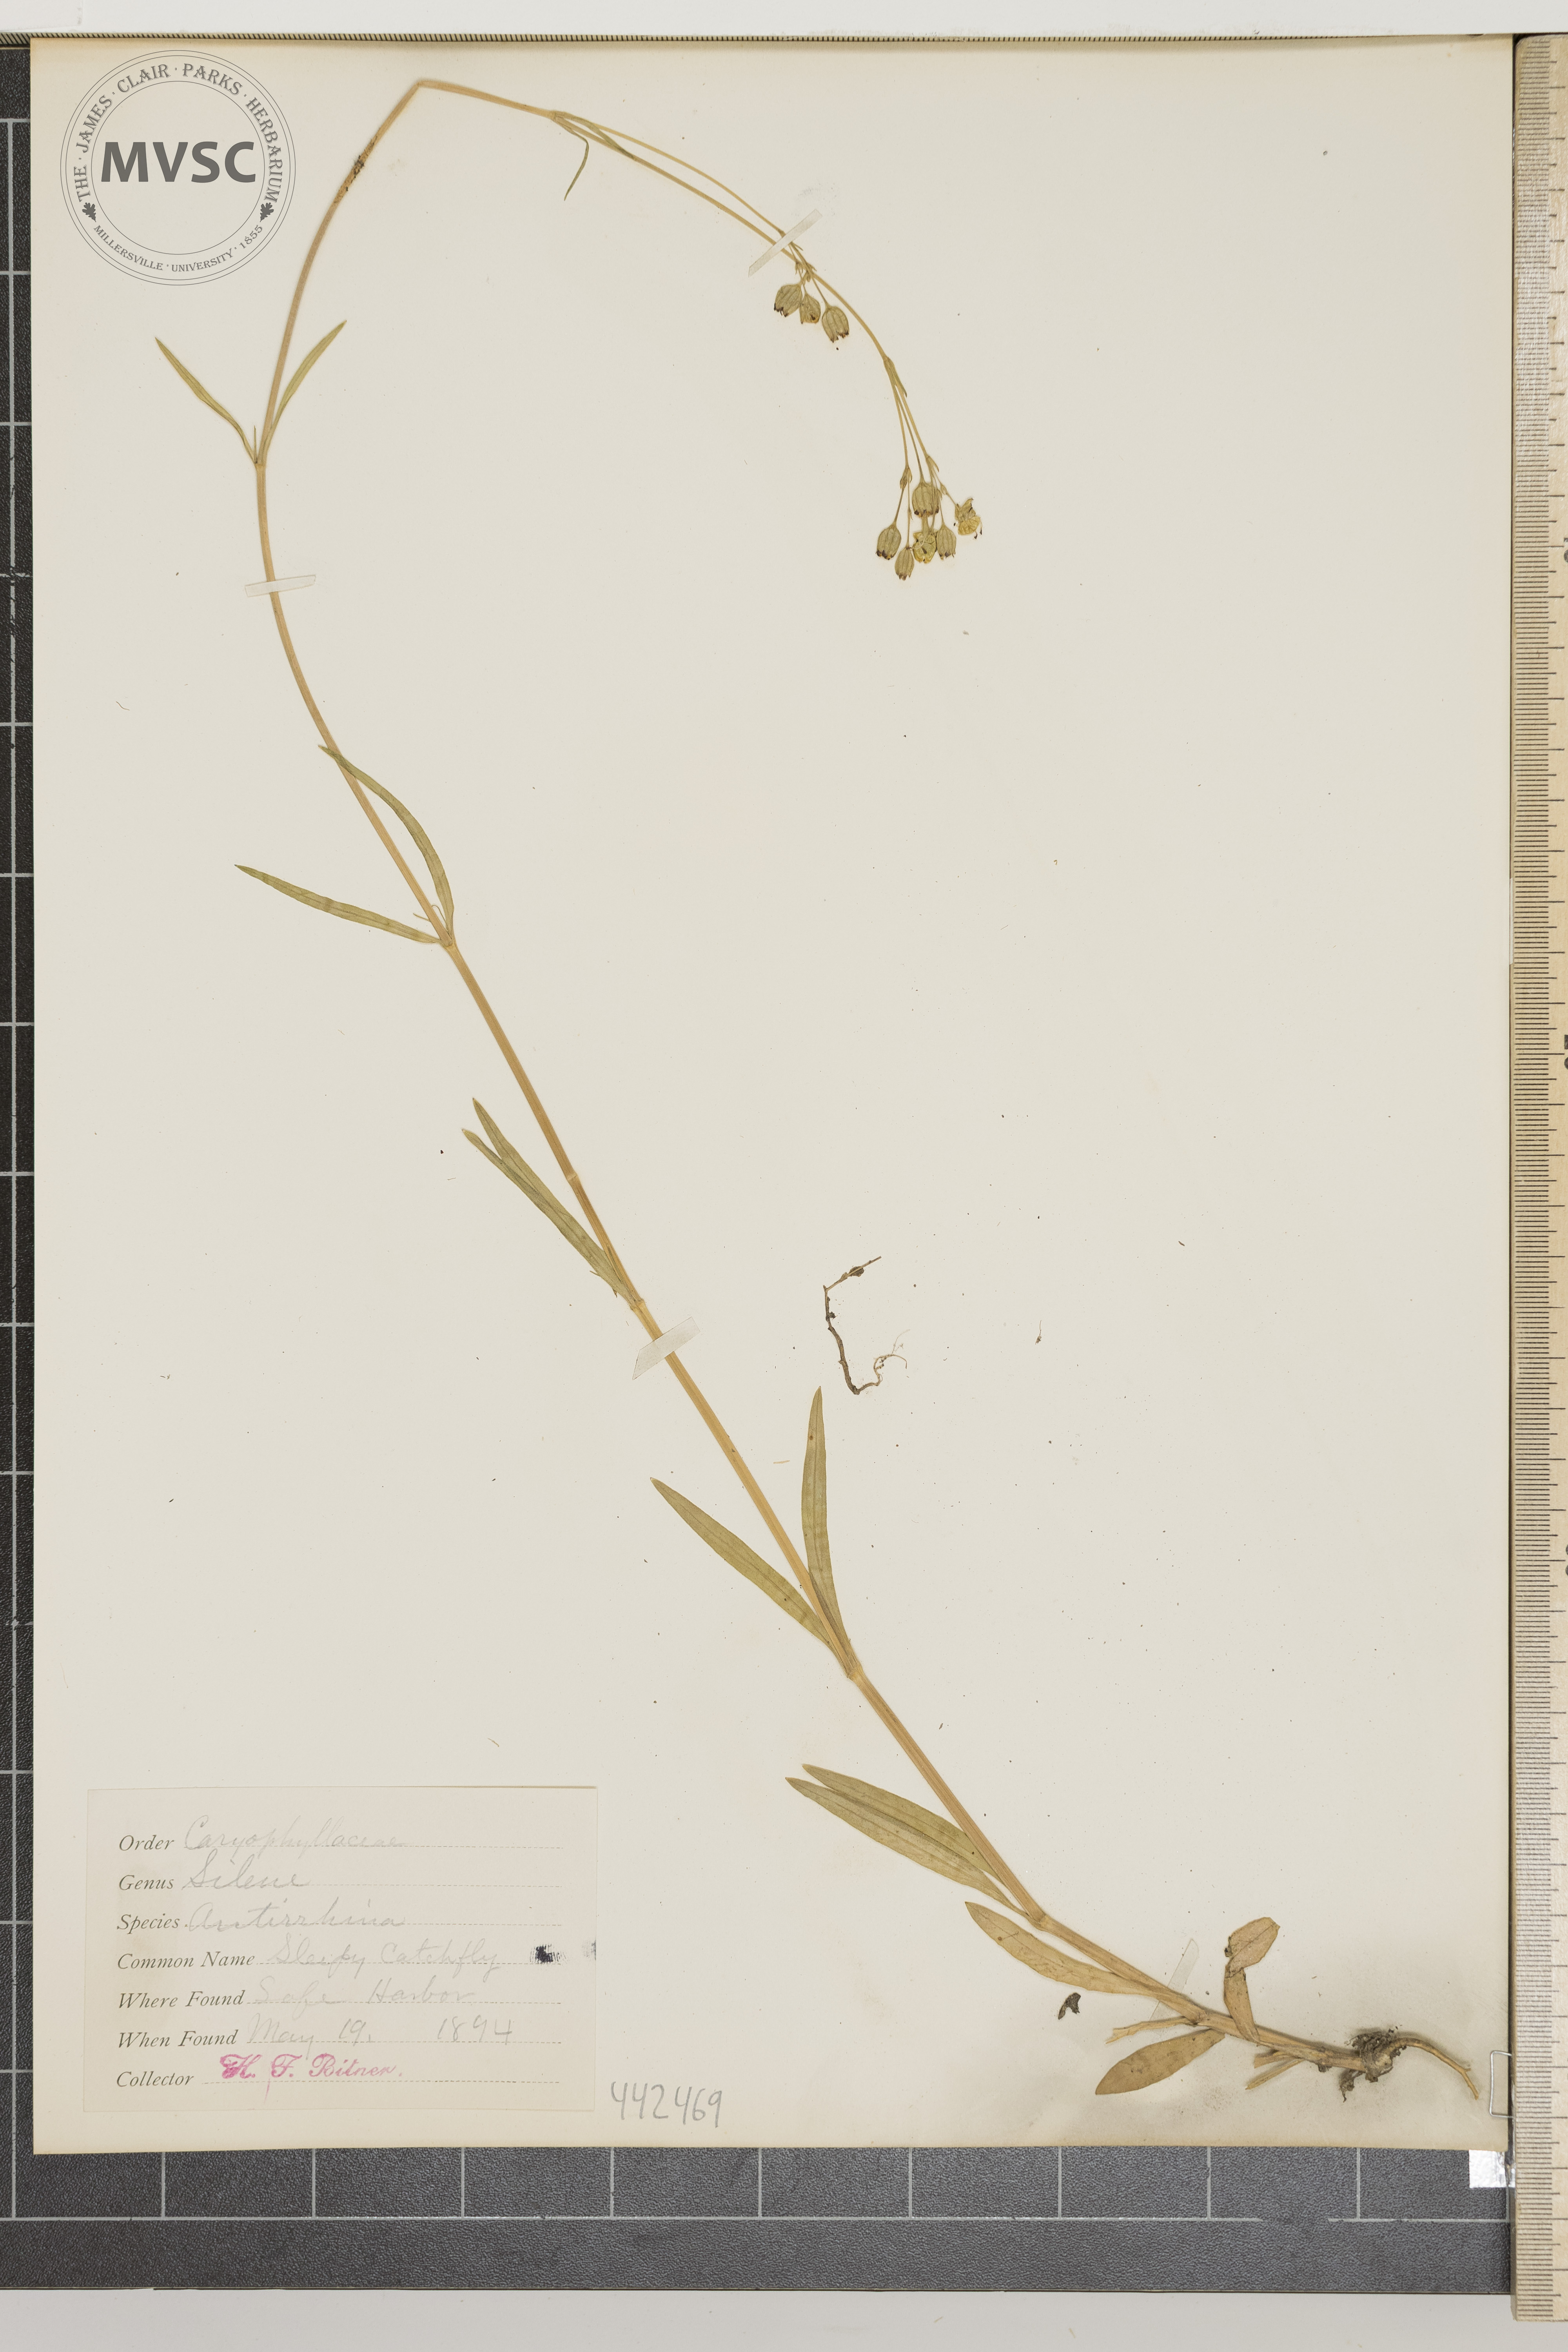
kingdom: Plantae
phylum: Tracheophyta
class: Magnoliopsida
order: Caryophyllales
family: Caryophyllaceae
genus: Silene
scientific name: Silene antirrhina
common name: Sleepy catchfly
